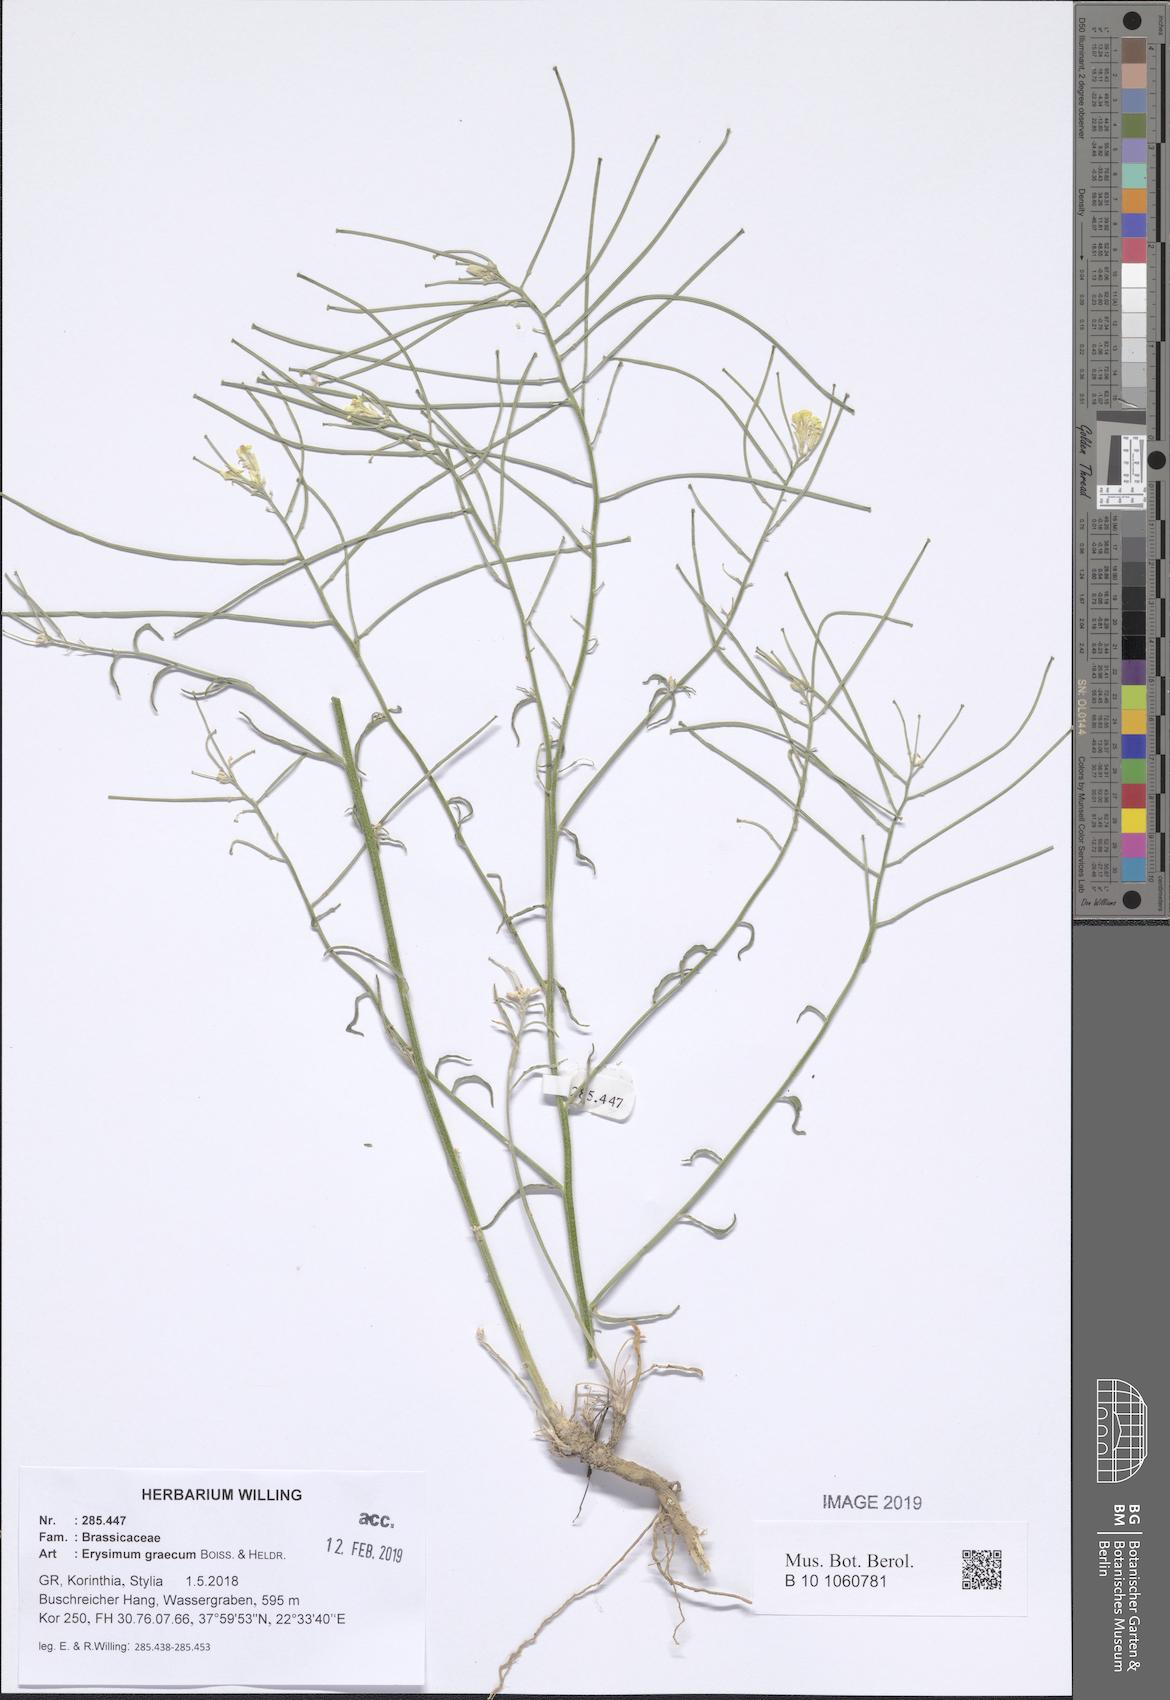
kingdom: Plantae
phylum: Tracheophyta
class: Magnoliopsida
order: Brassicales
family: Brassicaceae
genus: Erysimum
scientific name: Erysimum graecum
